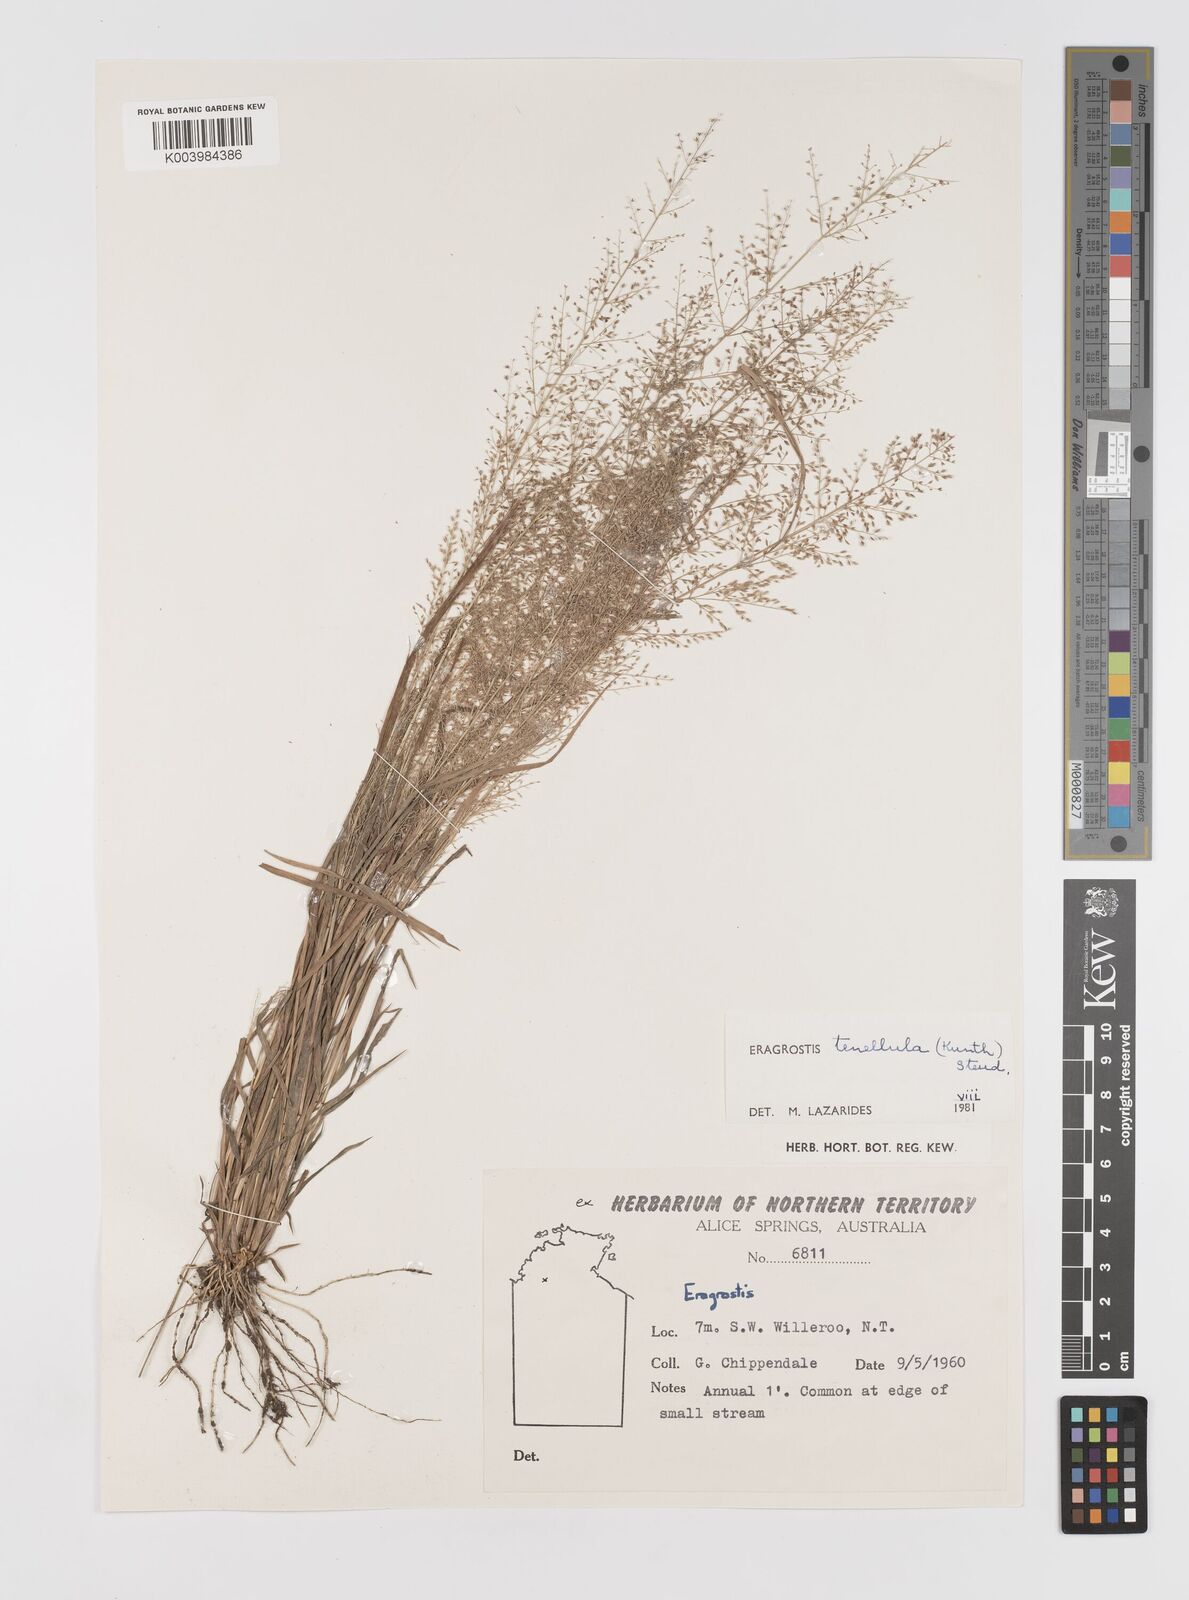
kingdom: Plantae
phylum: Tracheophyta
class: Liliopsida
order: Poales
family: Poaceae
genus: Eragrostis
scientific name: Eragrostis tenellula
